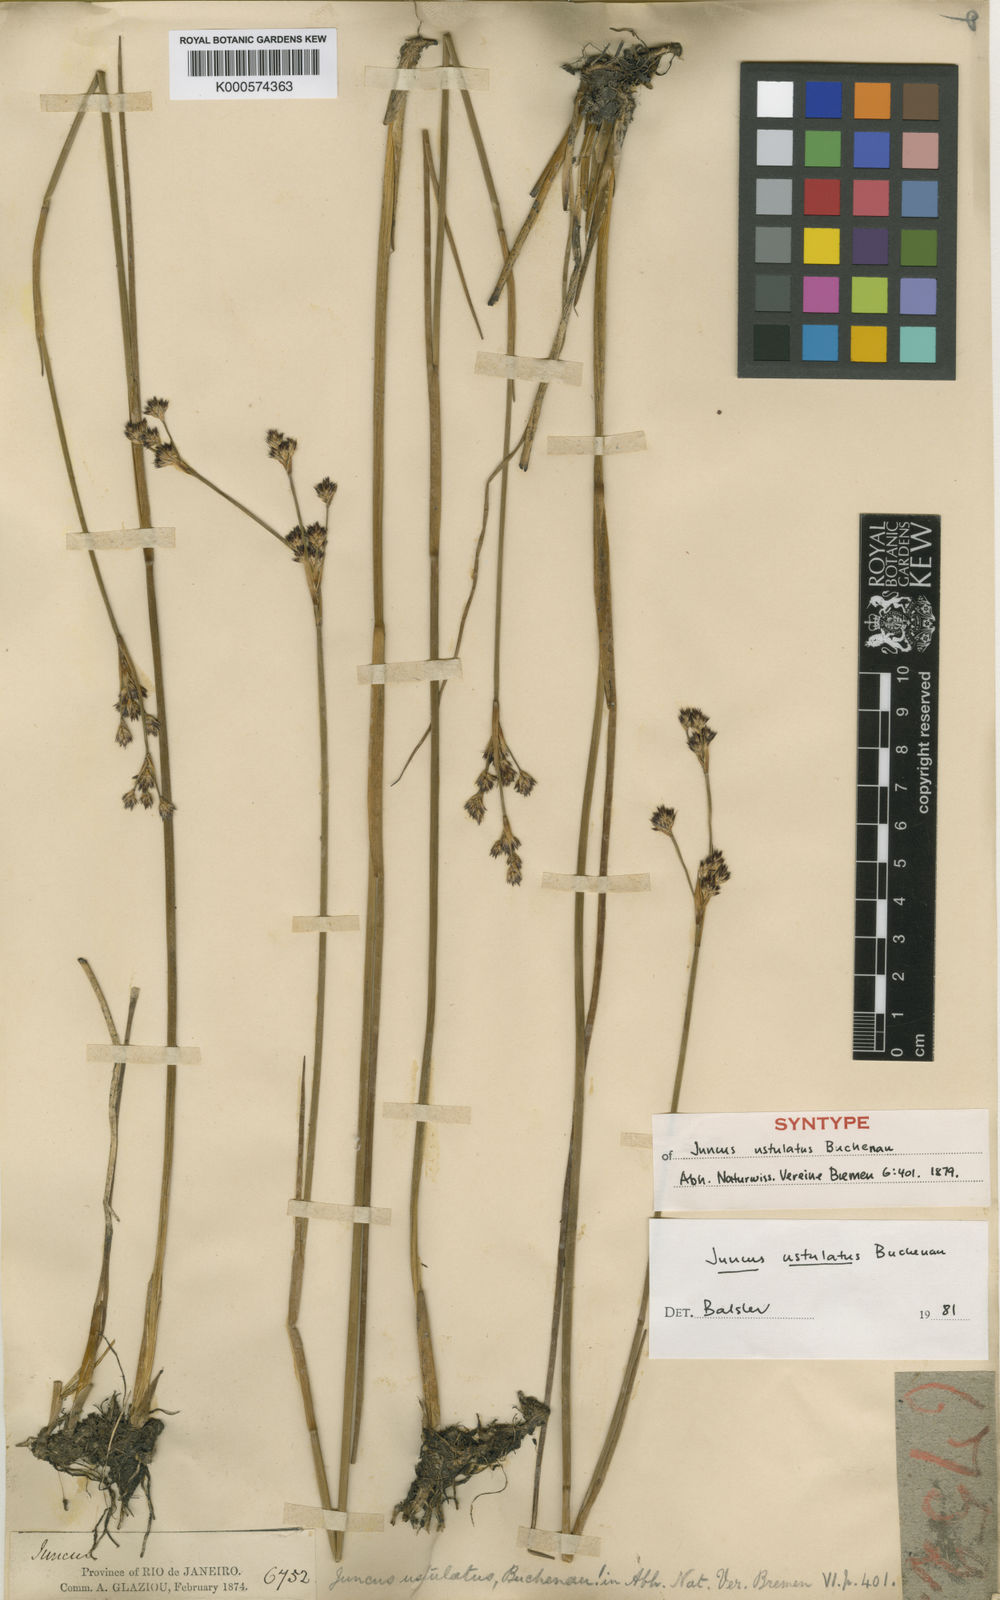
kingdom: Plantae
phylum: Tracheophyta
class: Liliopsida
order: Poales
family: Juncaceae
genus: Juncus
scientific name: Juncus brasiliensis
